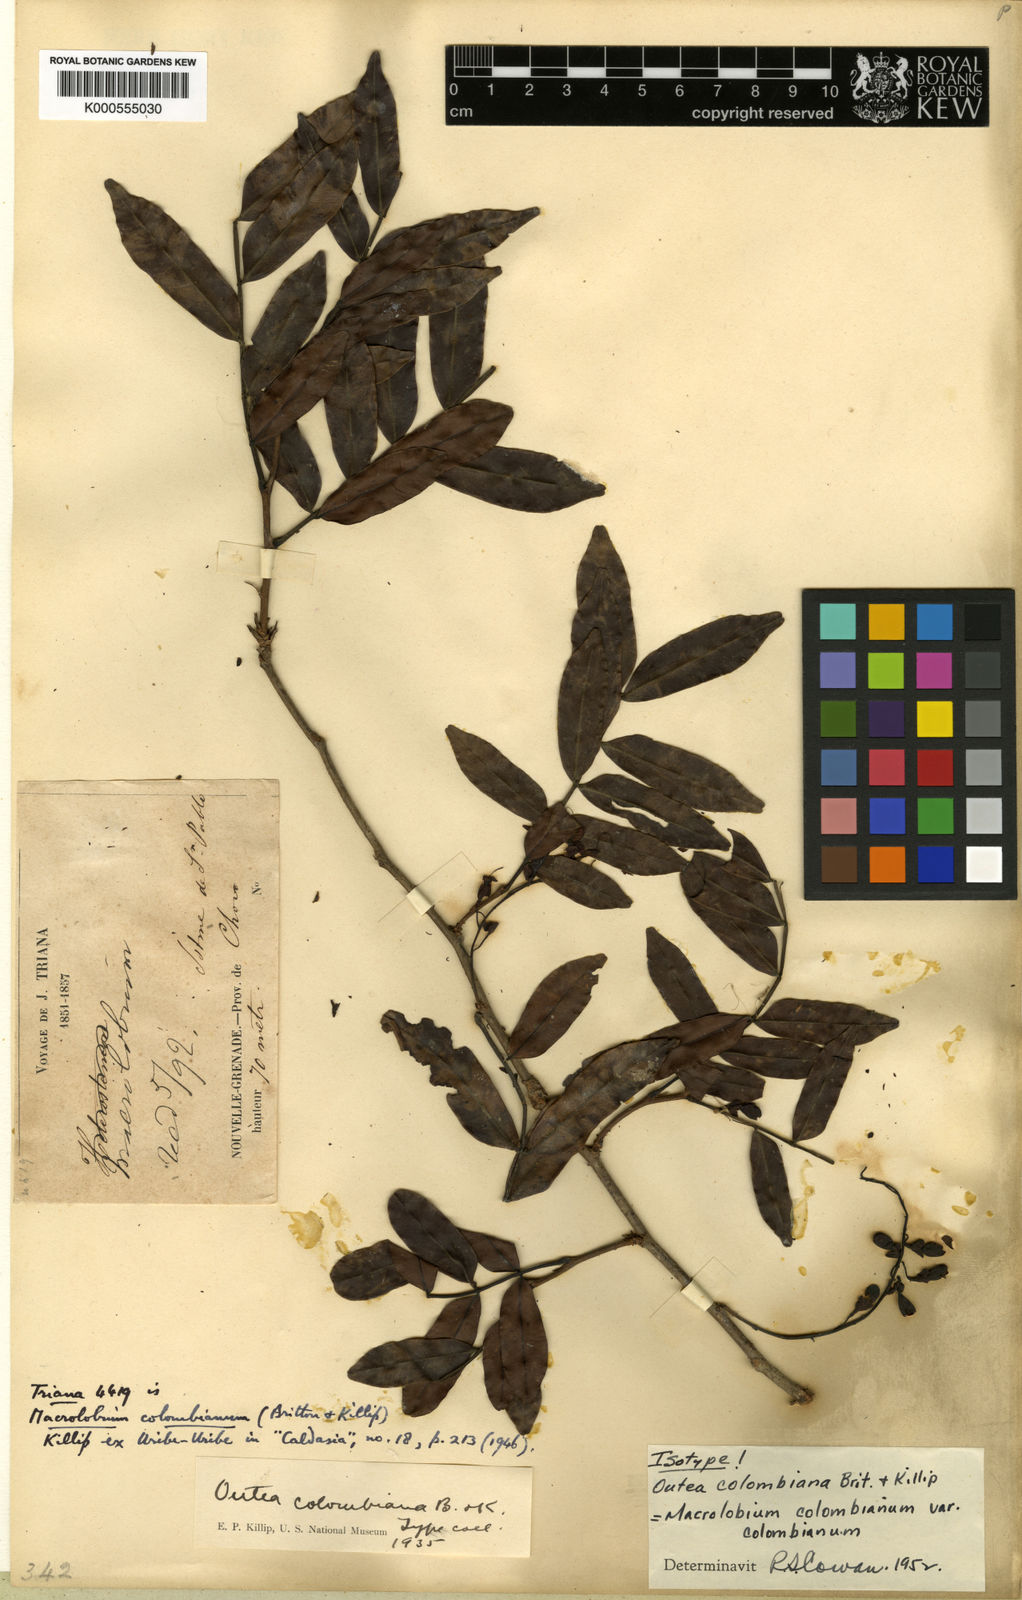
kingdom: Plantae
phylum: Tracheophyta
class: Magnoliopsida
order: Fabales
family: Fabaceae
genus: Macrolobium
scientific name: Macrolobium colombianum
